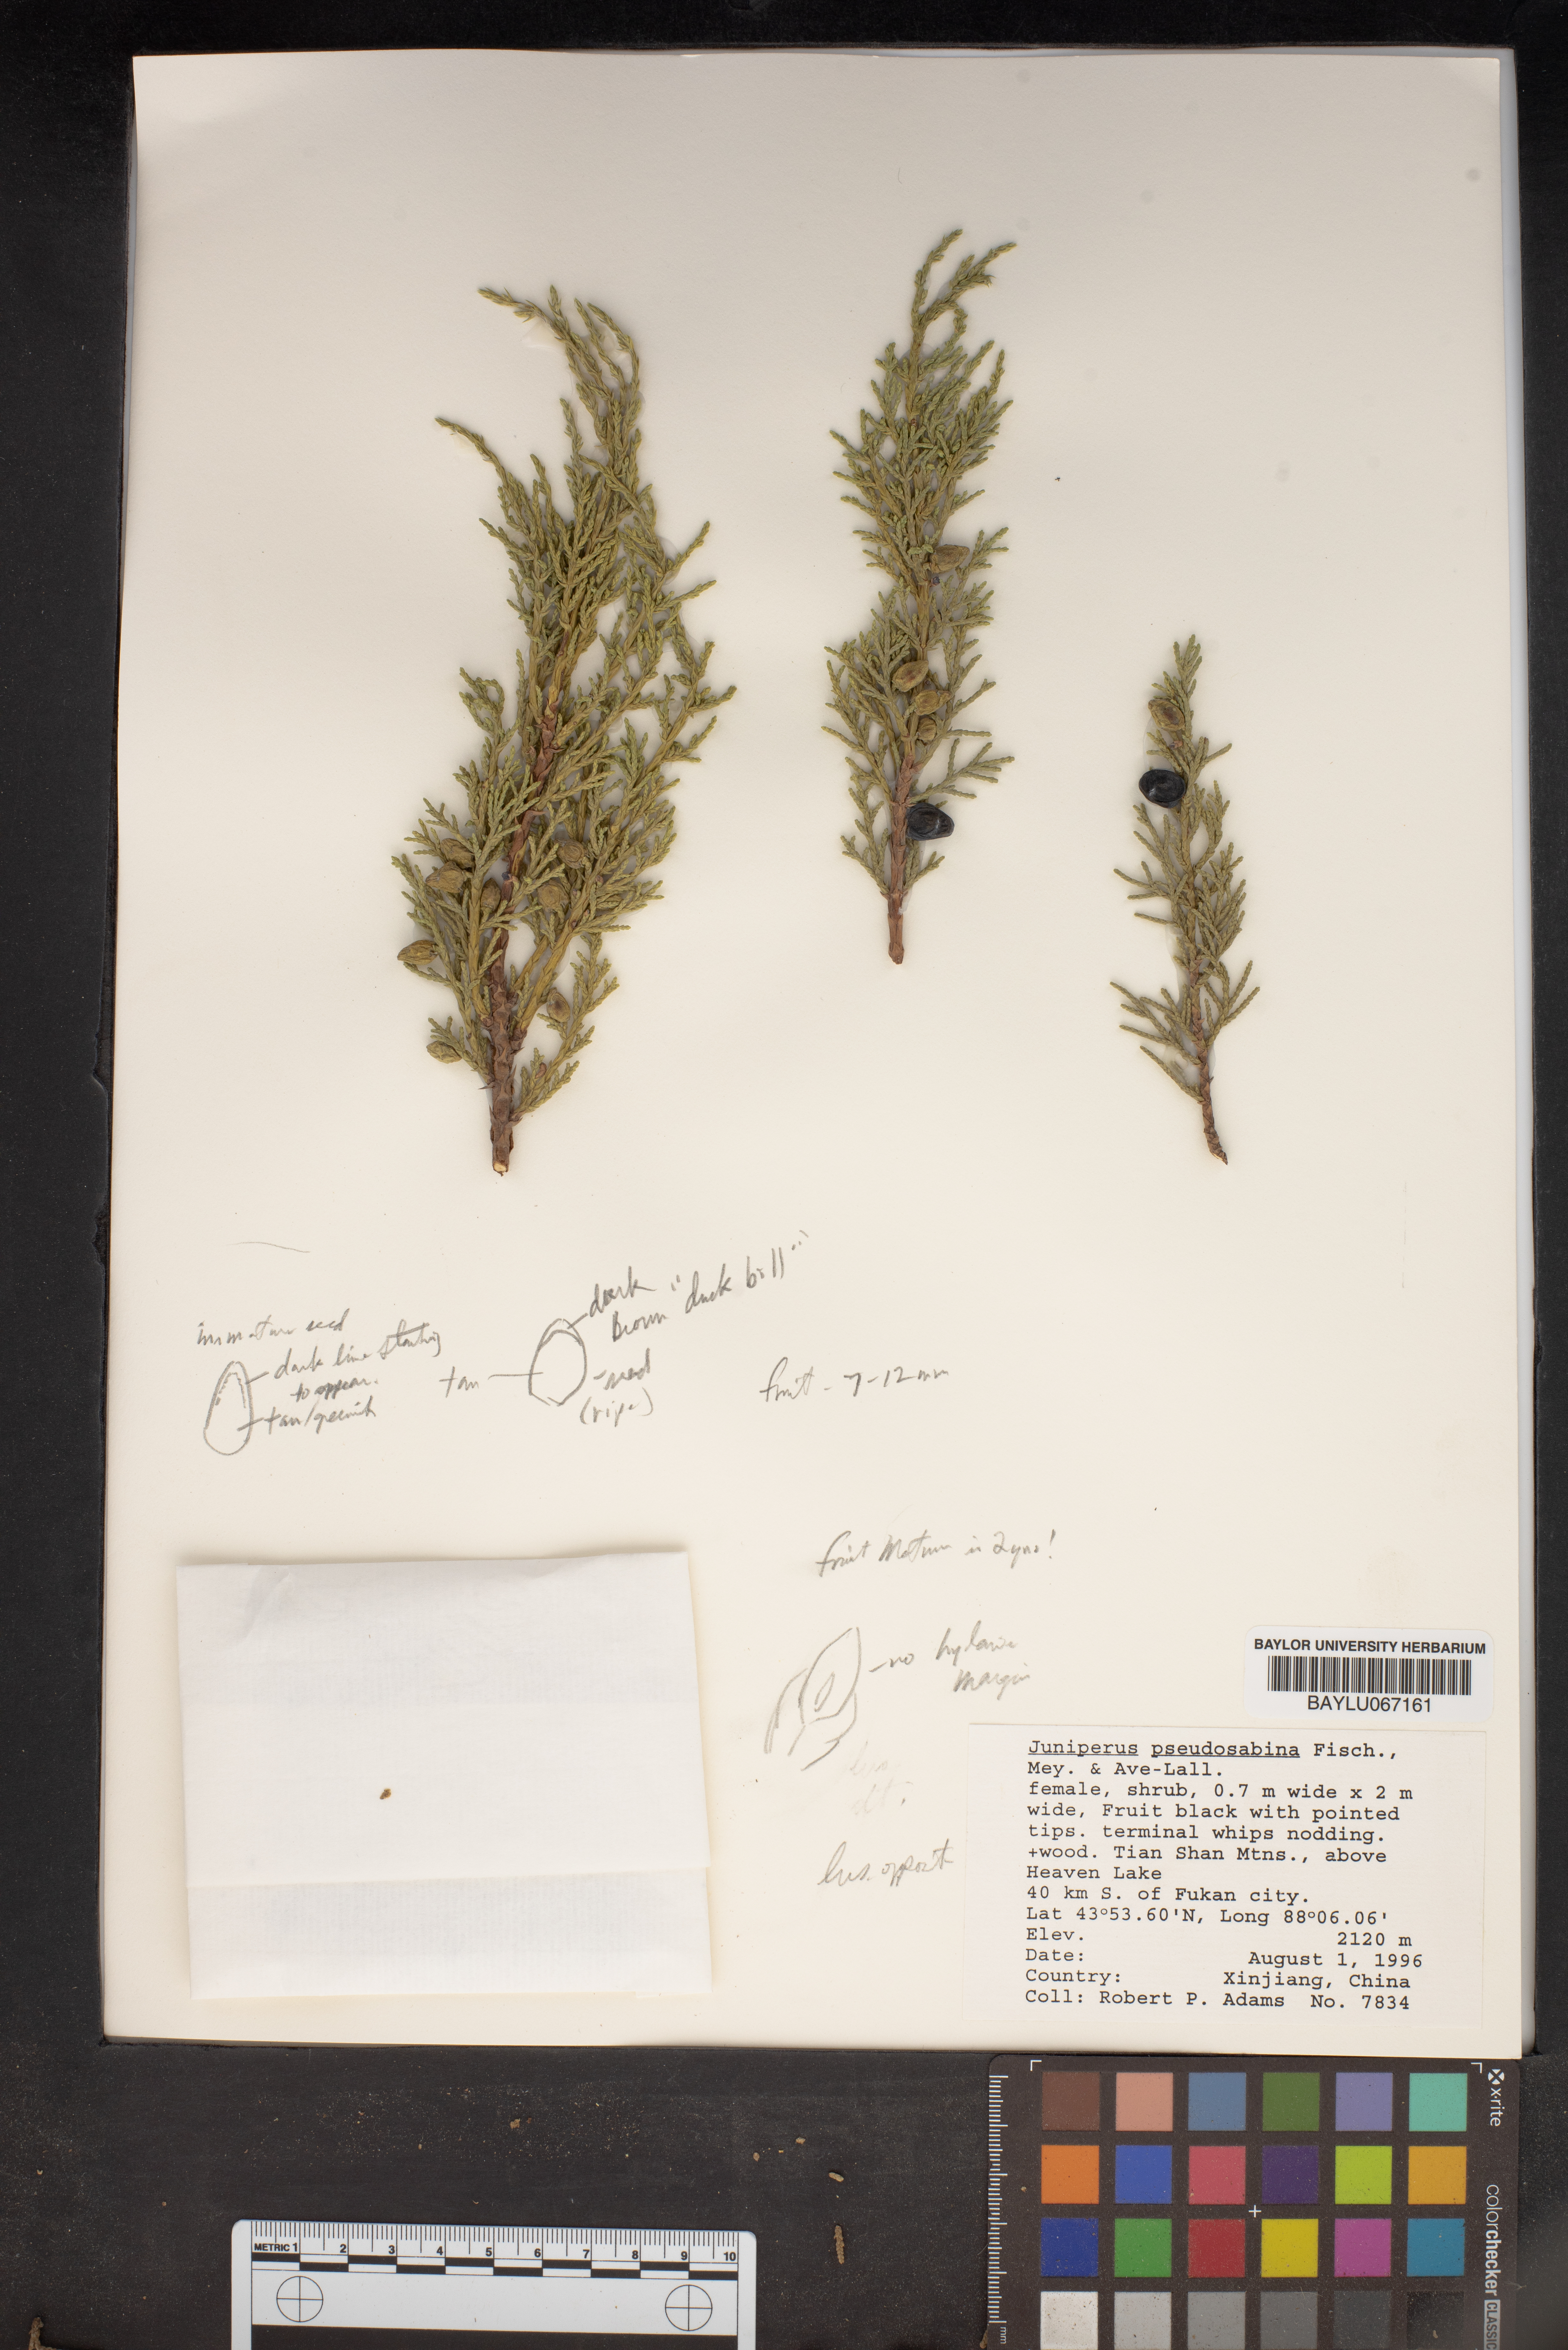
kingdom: Plantae
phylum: Tracheophyta
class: Pinopsida
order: Pinales
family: Cupressaceae
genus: Juniperus
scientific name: Juniperus pseudosabina
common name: Turkestan juniper
